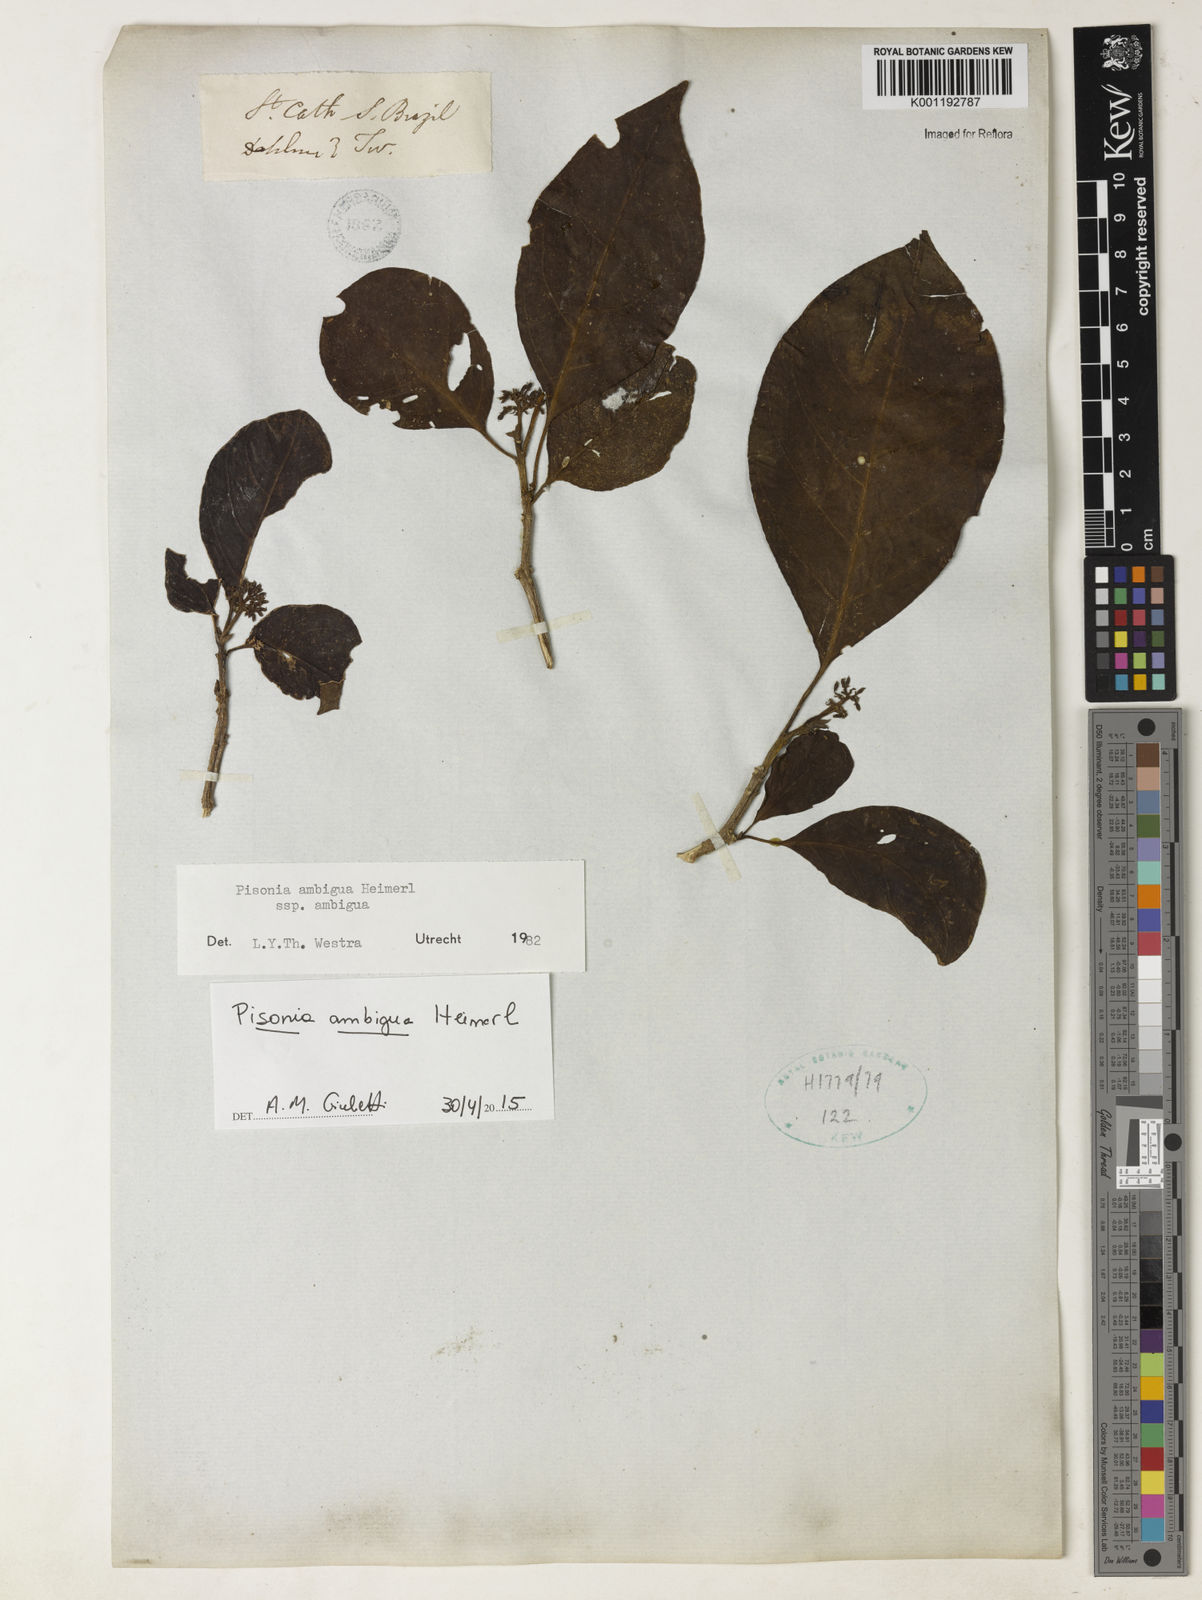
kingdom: Plantae
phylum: Tracheophyta
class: Magnoliopsida
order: Caryophyllales
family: Nyctaginaceae
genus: Pisonia
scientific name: Pisonia ambigua
